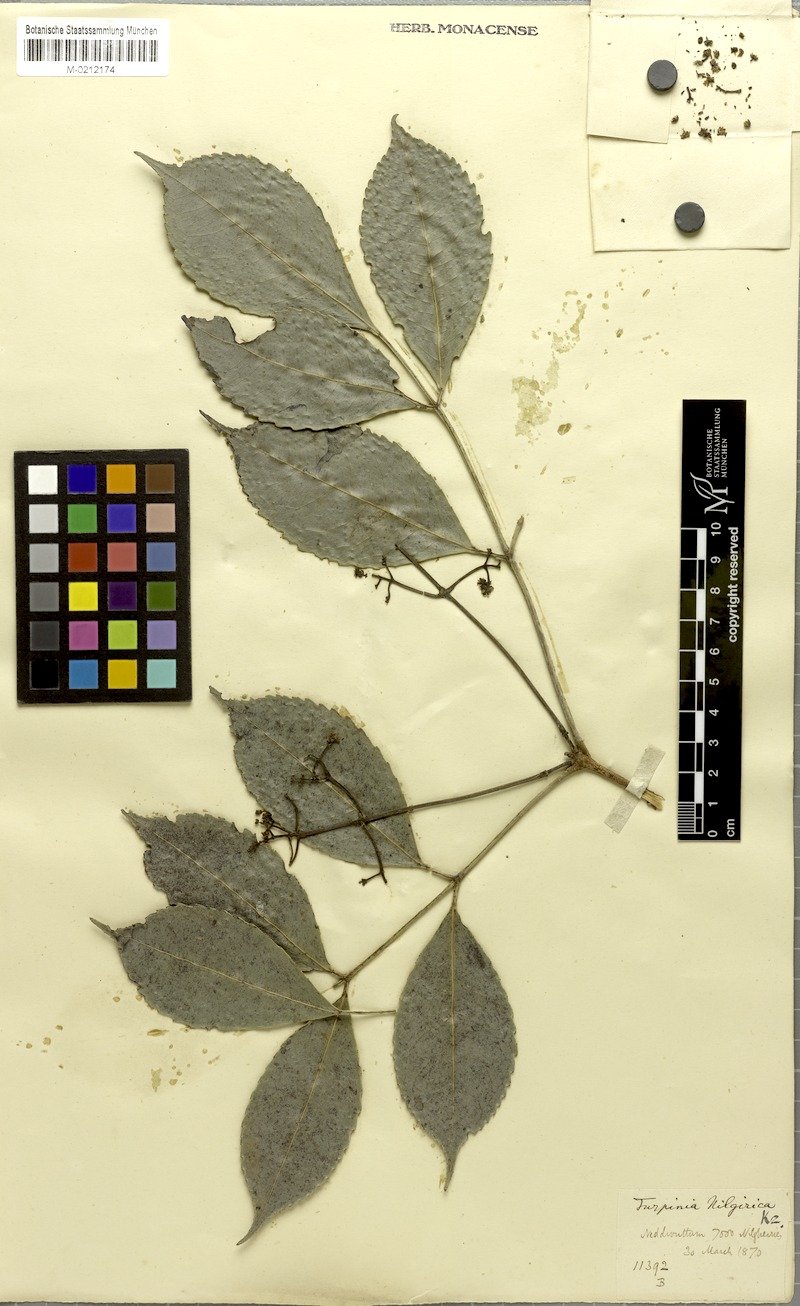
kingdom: Plantae
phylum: Tracheophyta
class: Magnoliopsida
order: Crossosomatales
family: Staphyleaceae
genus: Turpinia
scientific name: Turpinia
